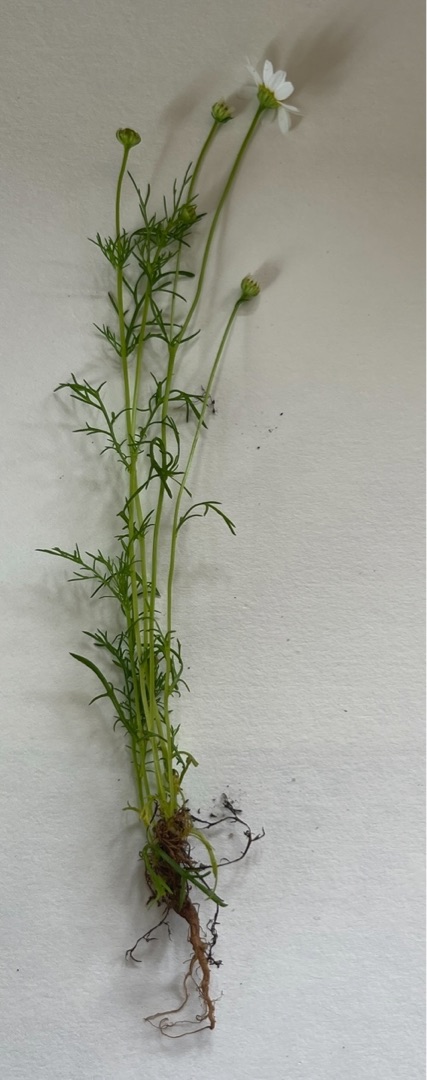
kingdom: Plantae
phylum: Tracheophyta
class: Magnoliopsida
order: Asterales
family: Asteraceae
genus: Tripleurospermum
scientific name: Tripleurospermum inodorum
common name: Lugtløs kamille
